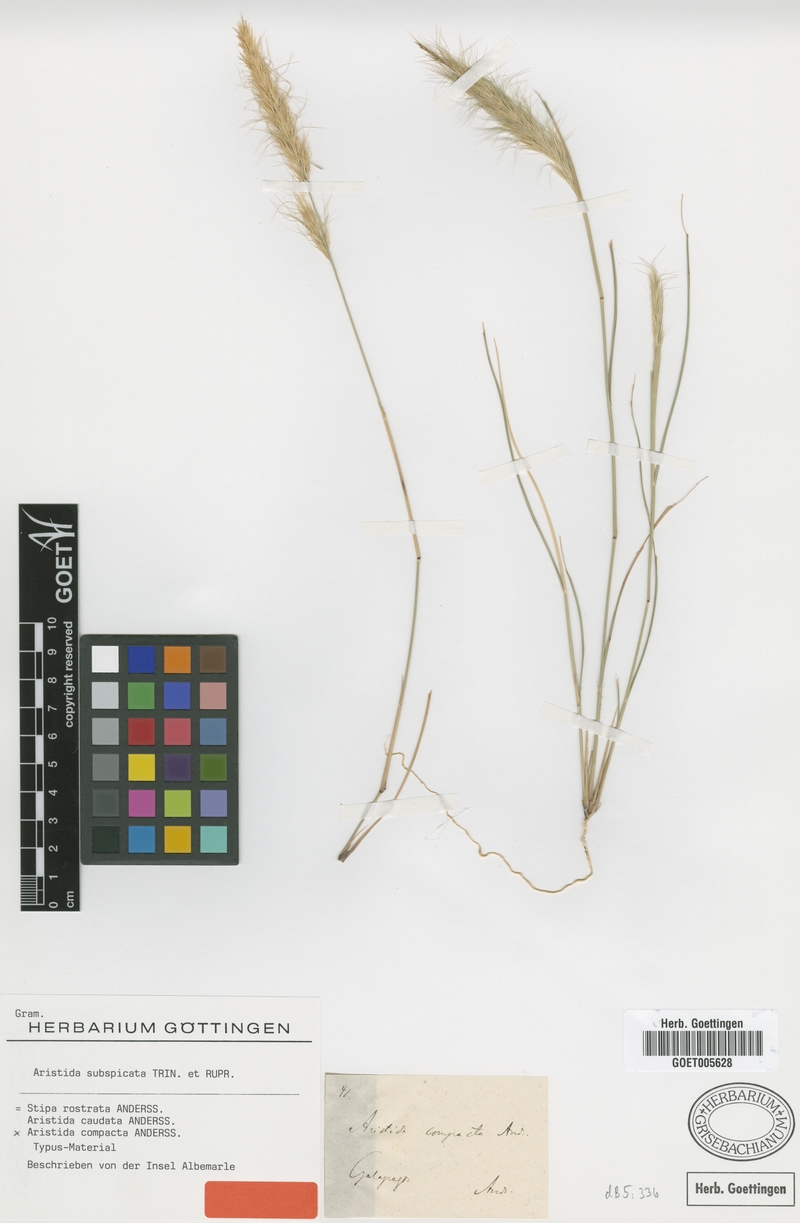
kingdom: Plantae
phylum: Tracheophyta
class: Liliopsida
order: Poales
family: Poaceae
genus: Aristida
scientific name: Aristida subspicata
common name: Galapagos three-awn grass
